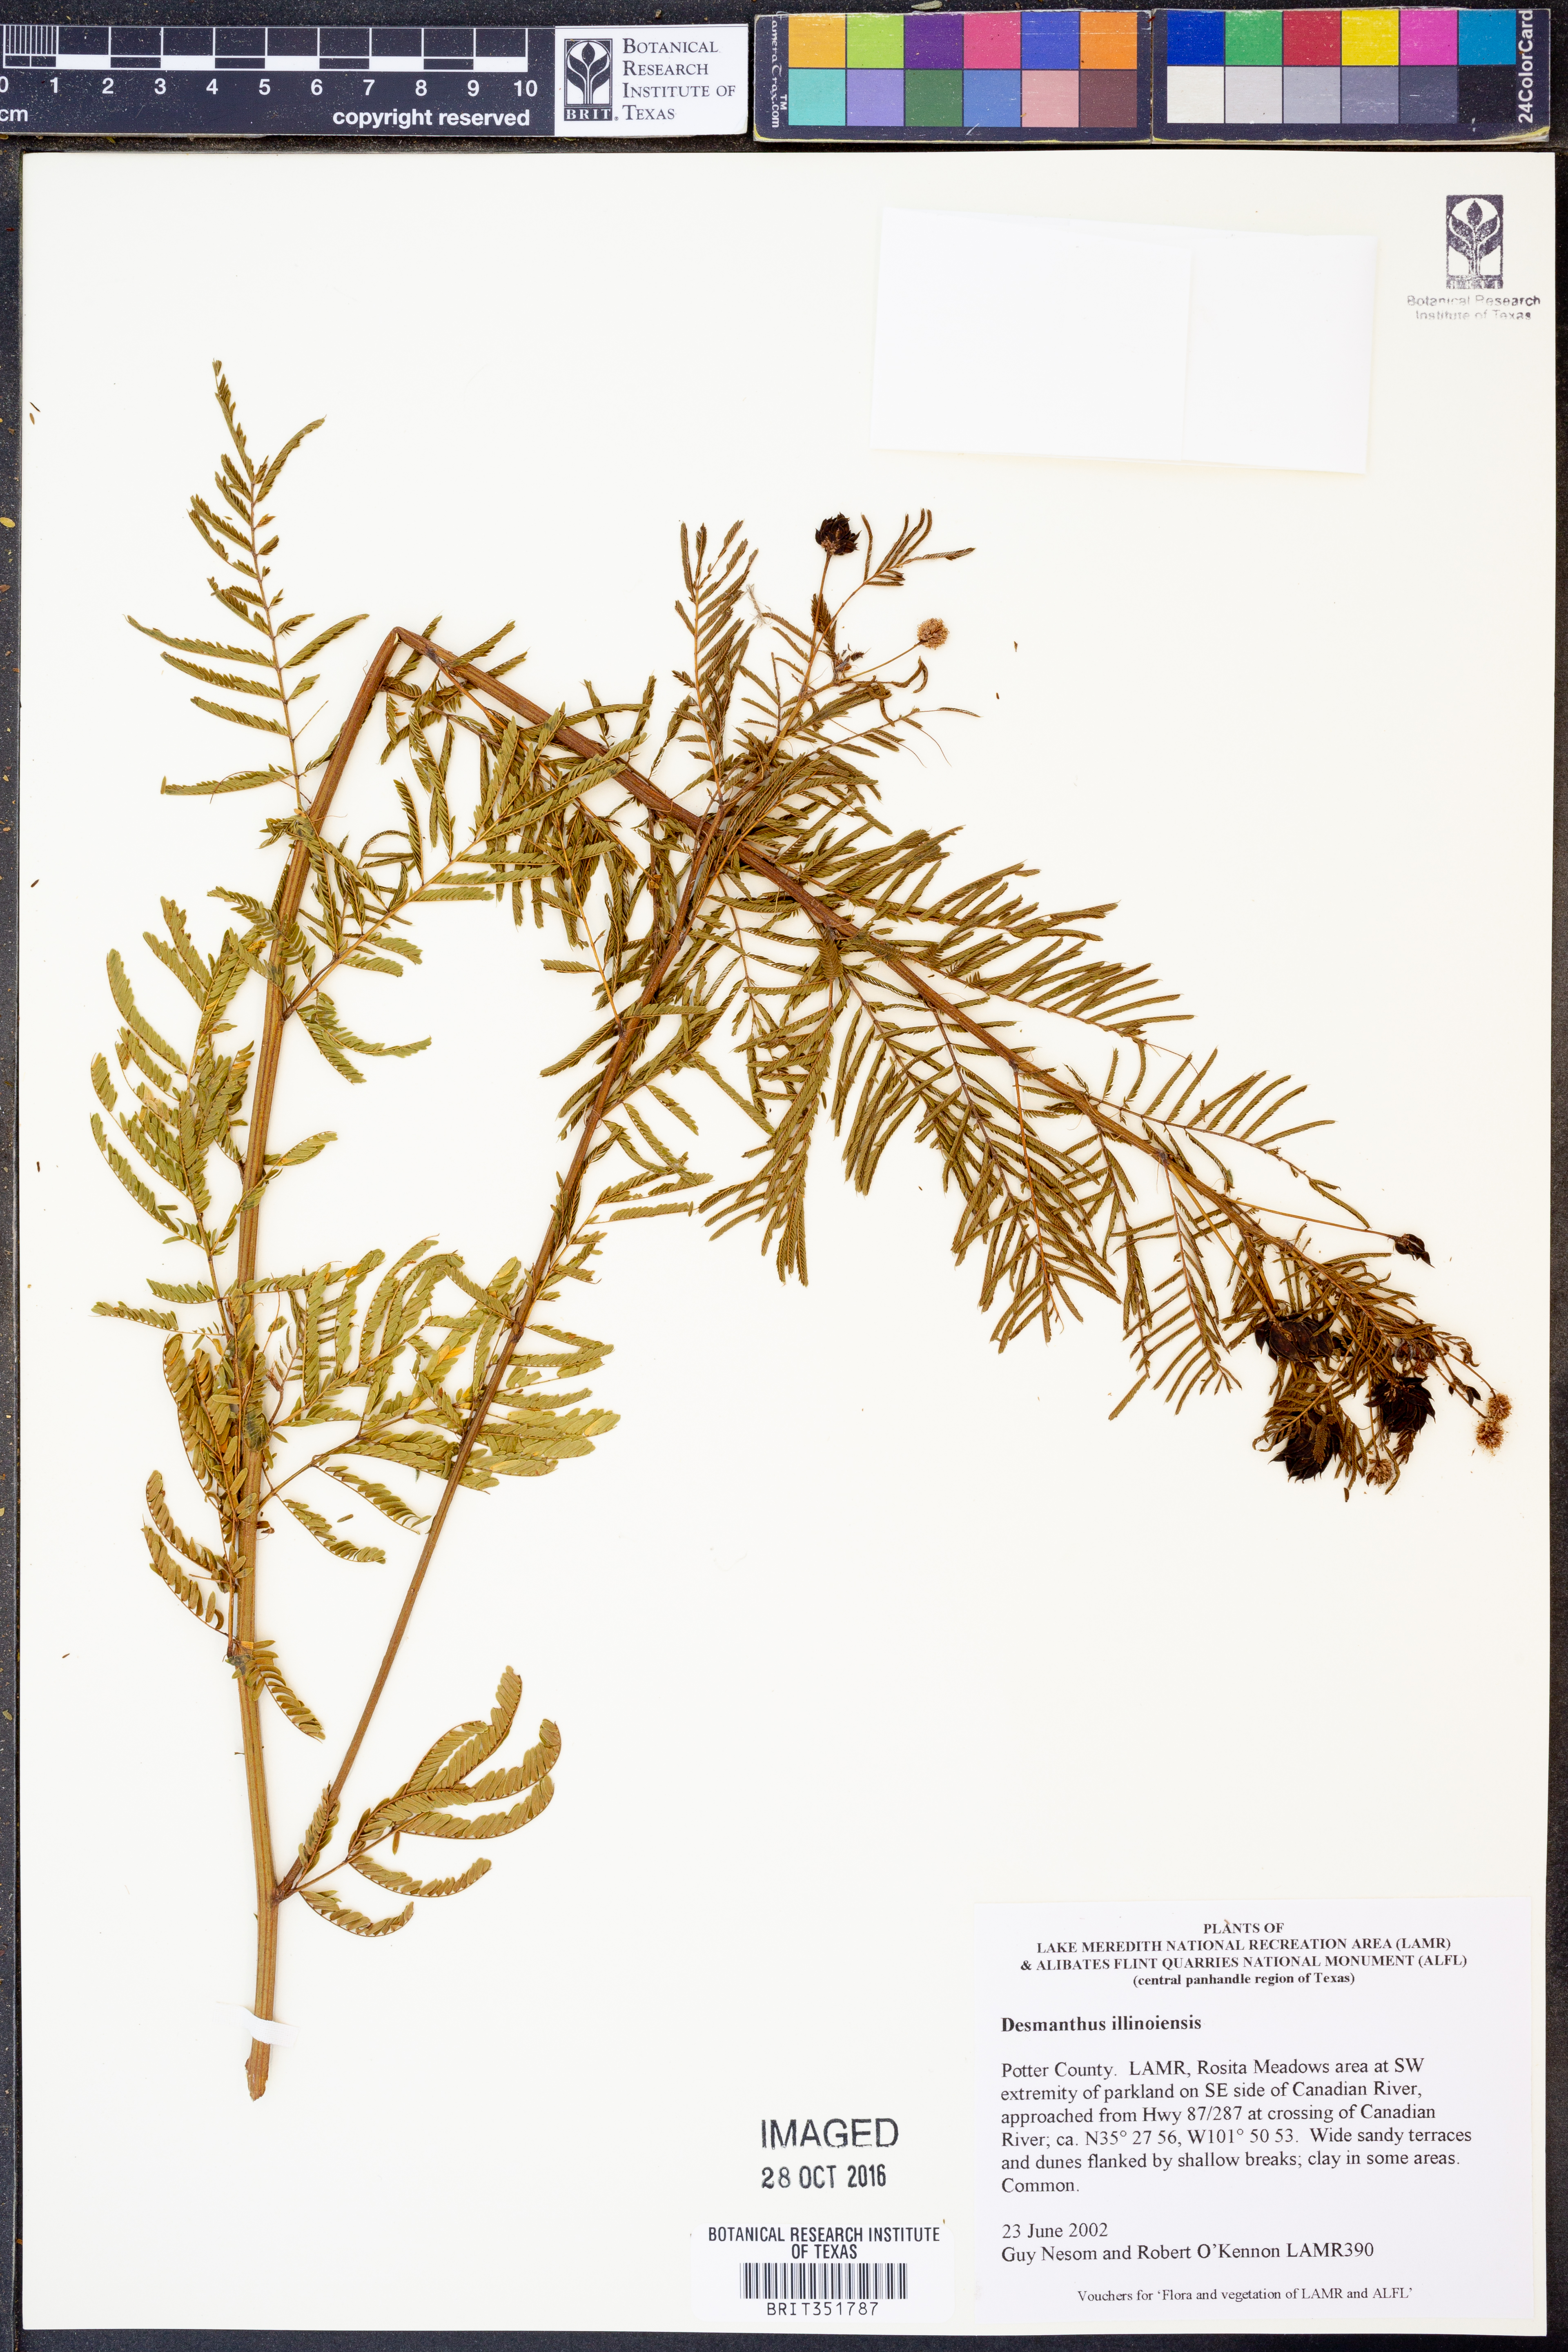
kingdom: Plantae
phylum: Tracheophyta
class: Magnoliopsida
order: Fabales
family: Fabaceae
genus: Desmanthus
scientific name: Desmanthus illinoensis
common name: Illinois bundle-flower
